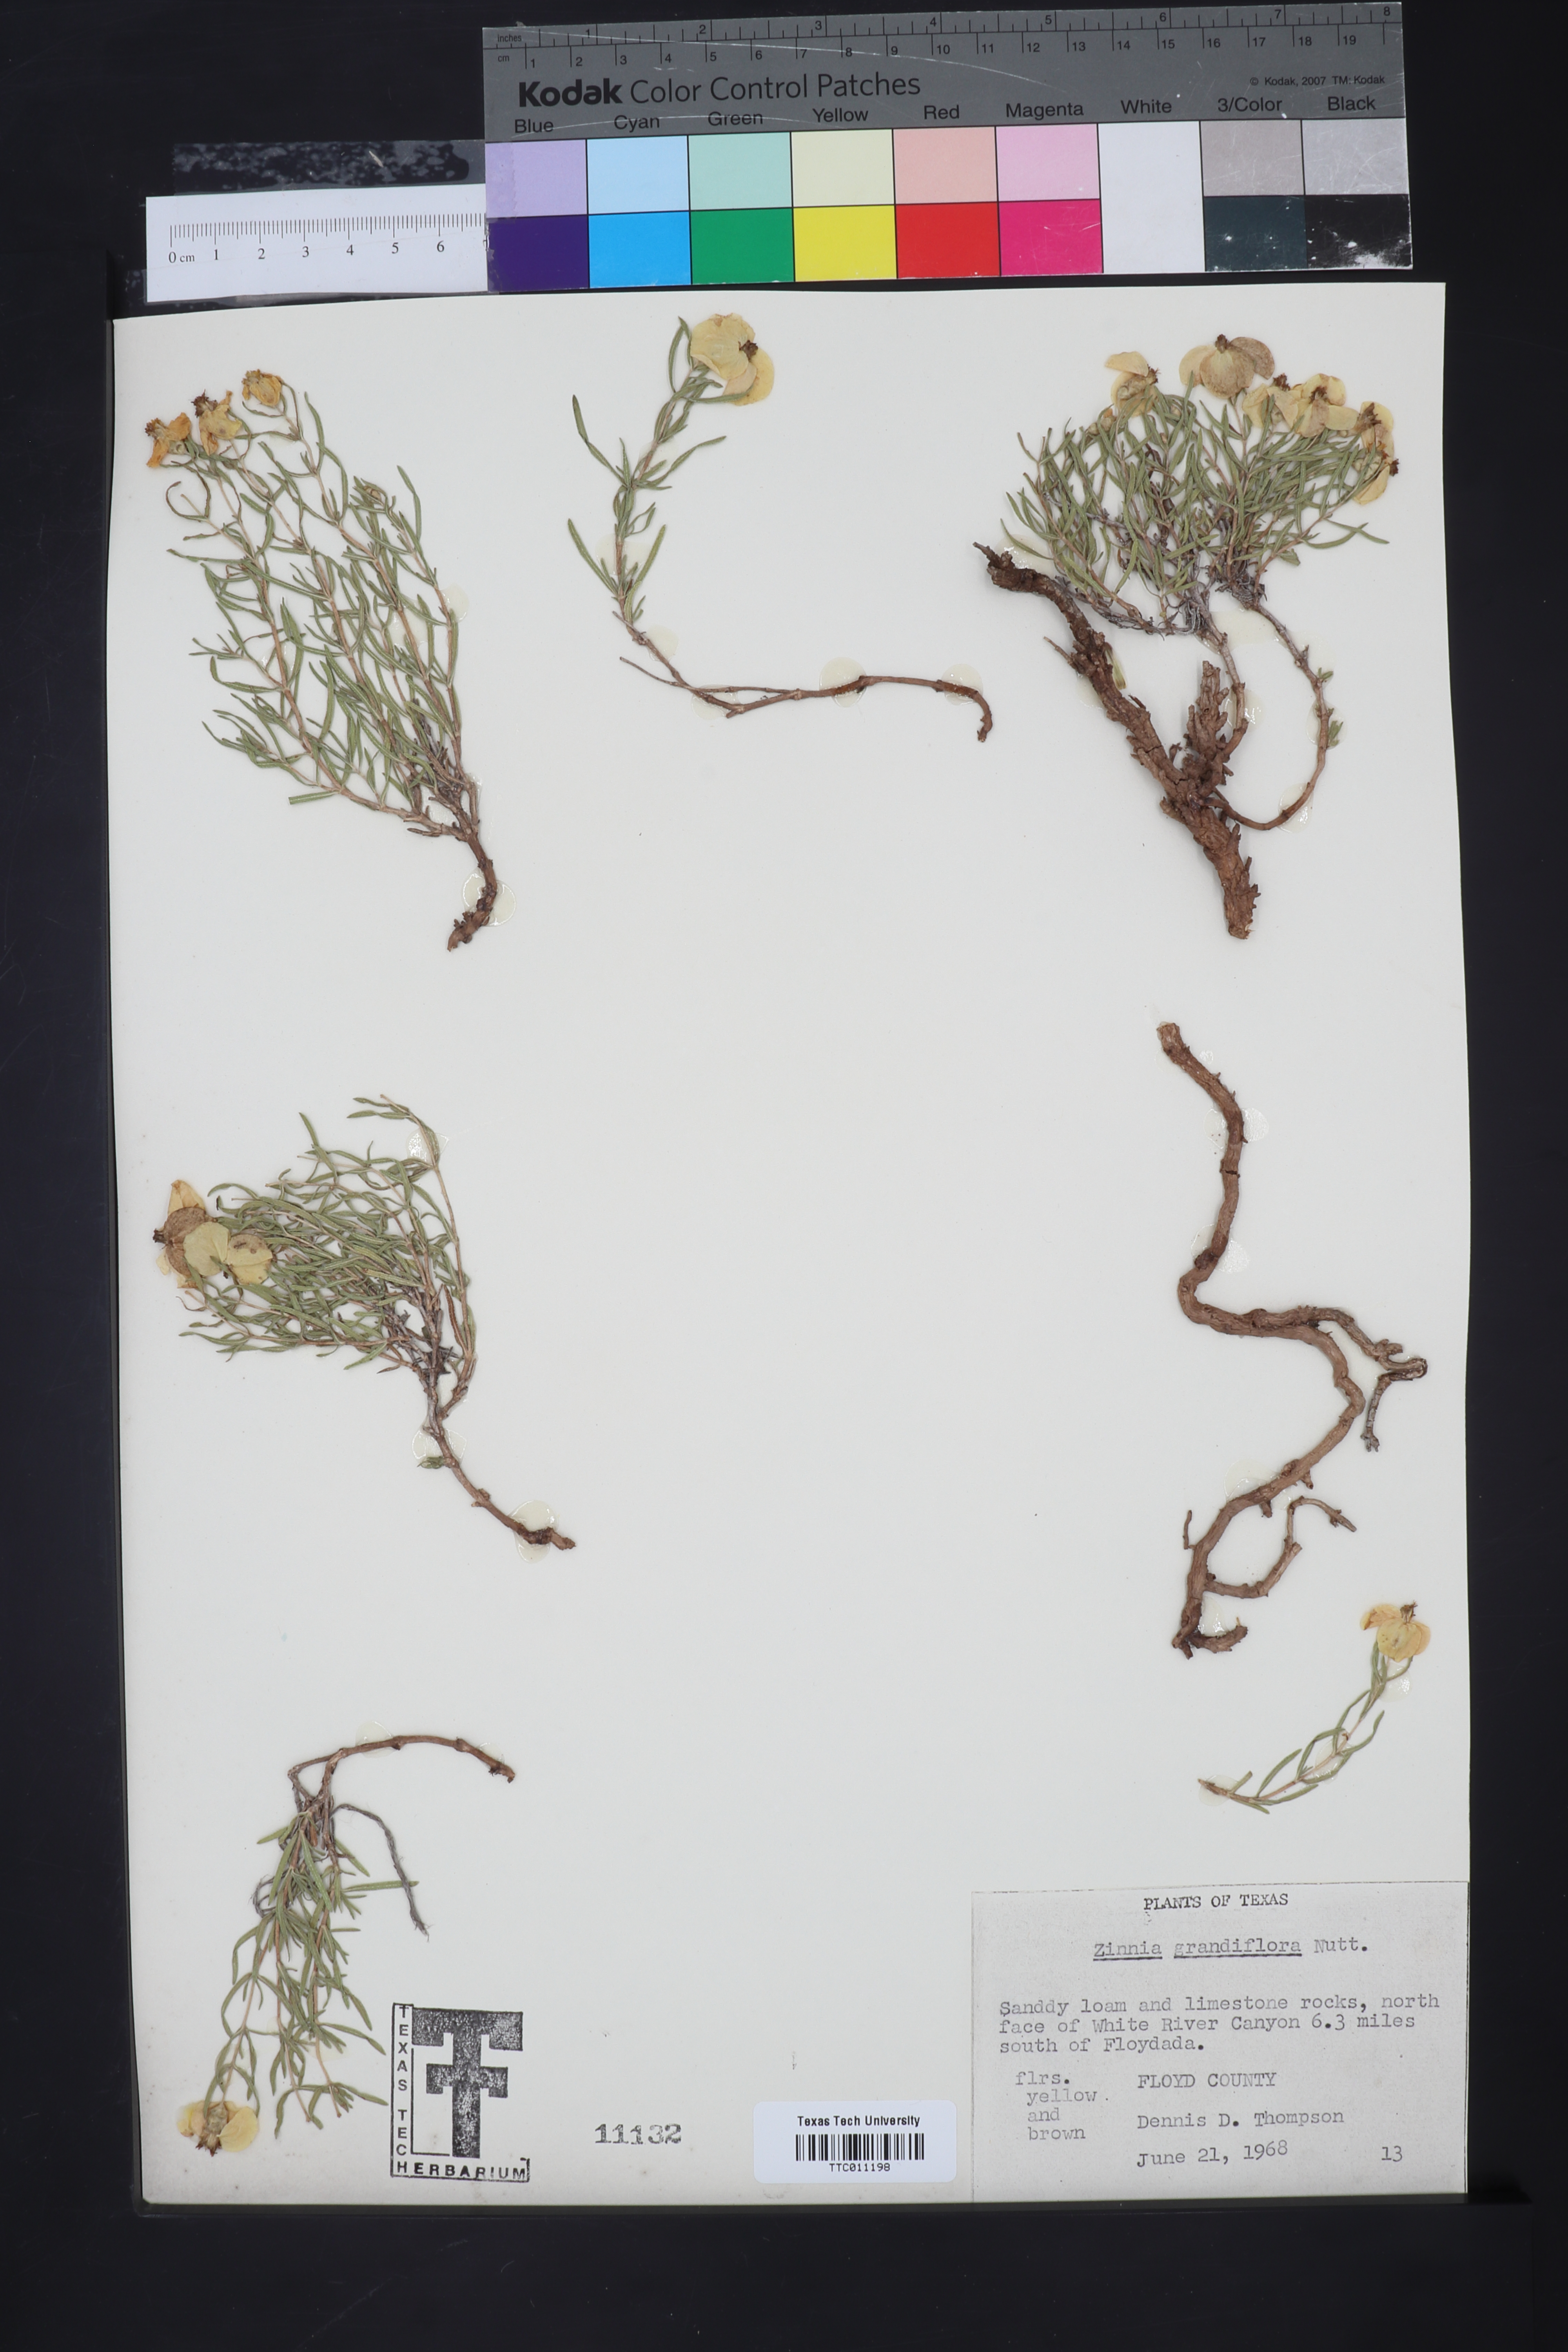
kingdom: Plantae
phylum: Tracheophyta
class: Magnoliopsida
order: Asterales
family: Asteraceae
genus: Zinnia
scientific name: Zinnia grandiflora
